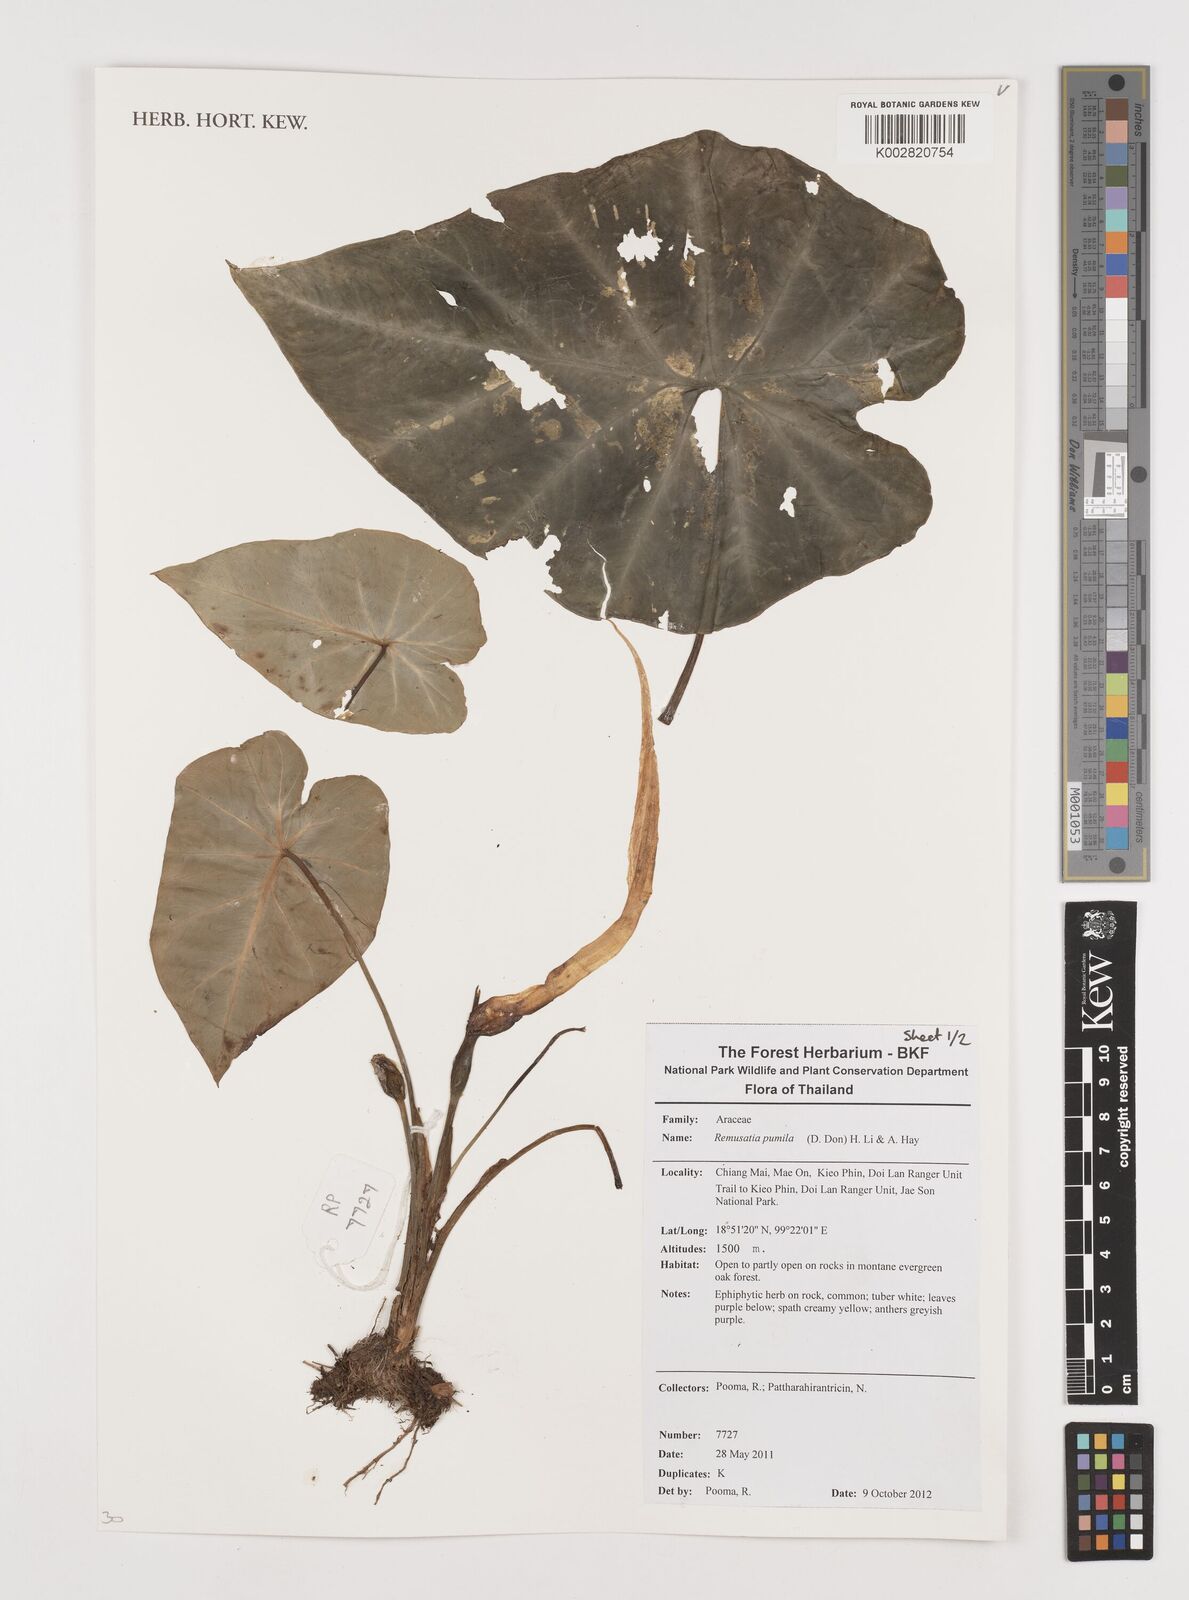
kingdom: Plantae
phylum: Tracheophyta
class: Liliopsida
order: Alismatales
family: Araceae
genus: Remusatia
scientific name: Remusatia pumila
